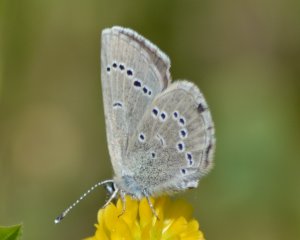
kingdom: Animalia
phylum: Arthropoda
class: Insecta
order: Lepidoptera
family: Lycaenidae
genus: Glaucopsyche
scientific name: Glaucopsyche lygdamus
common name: Silvery Blue
